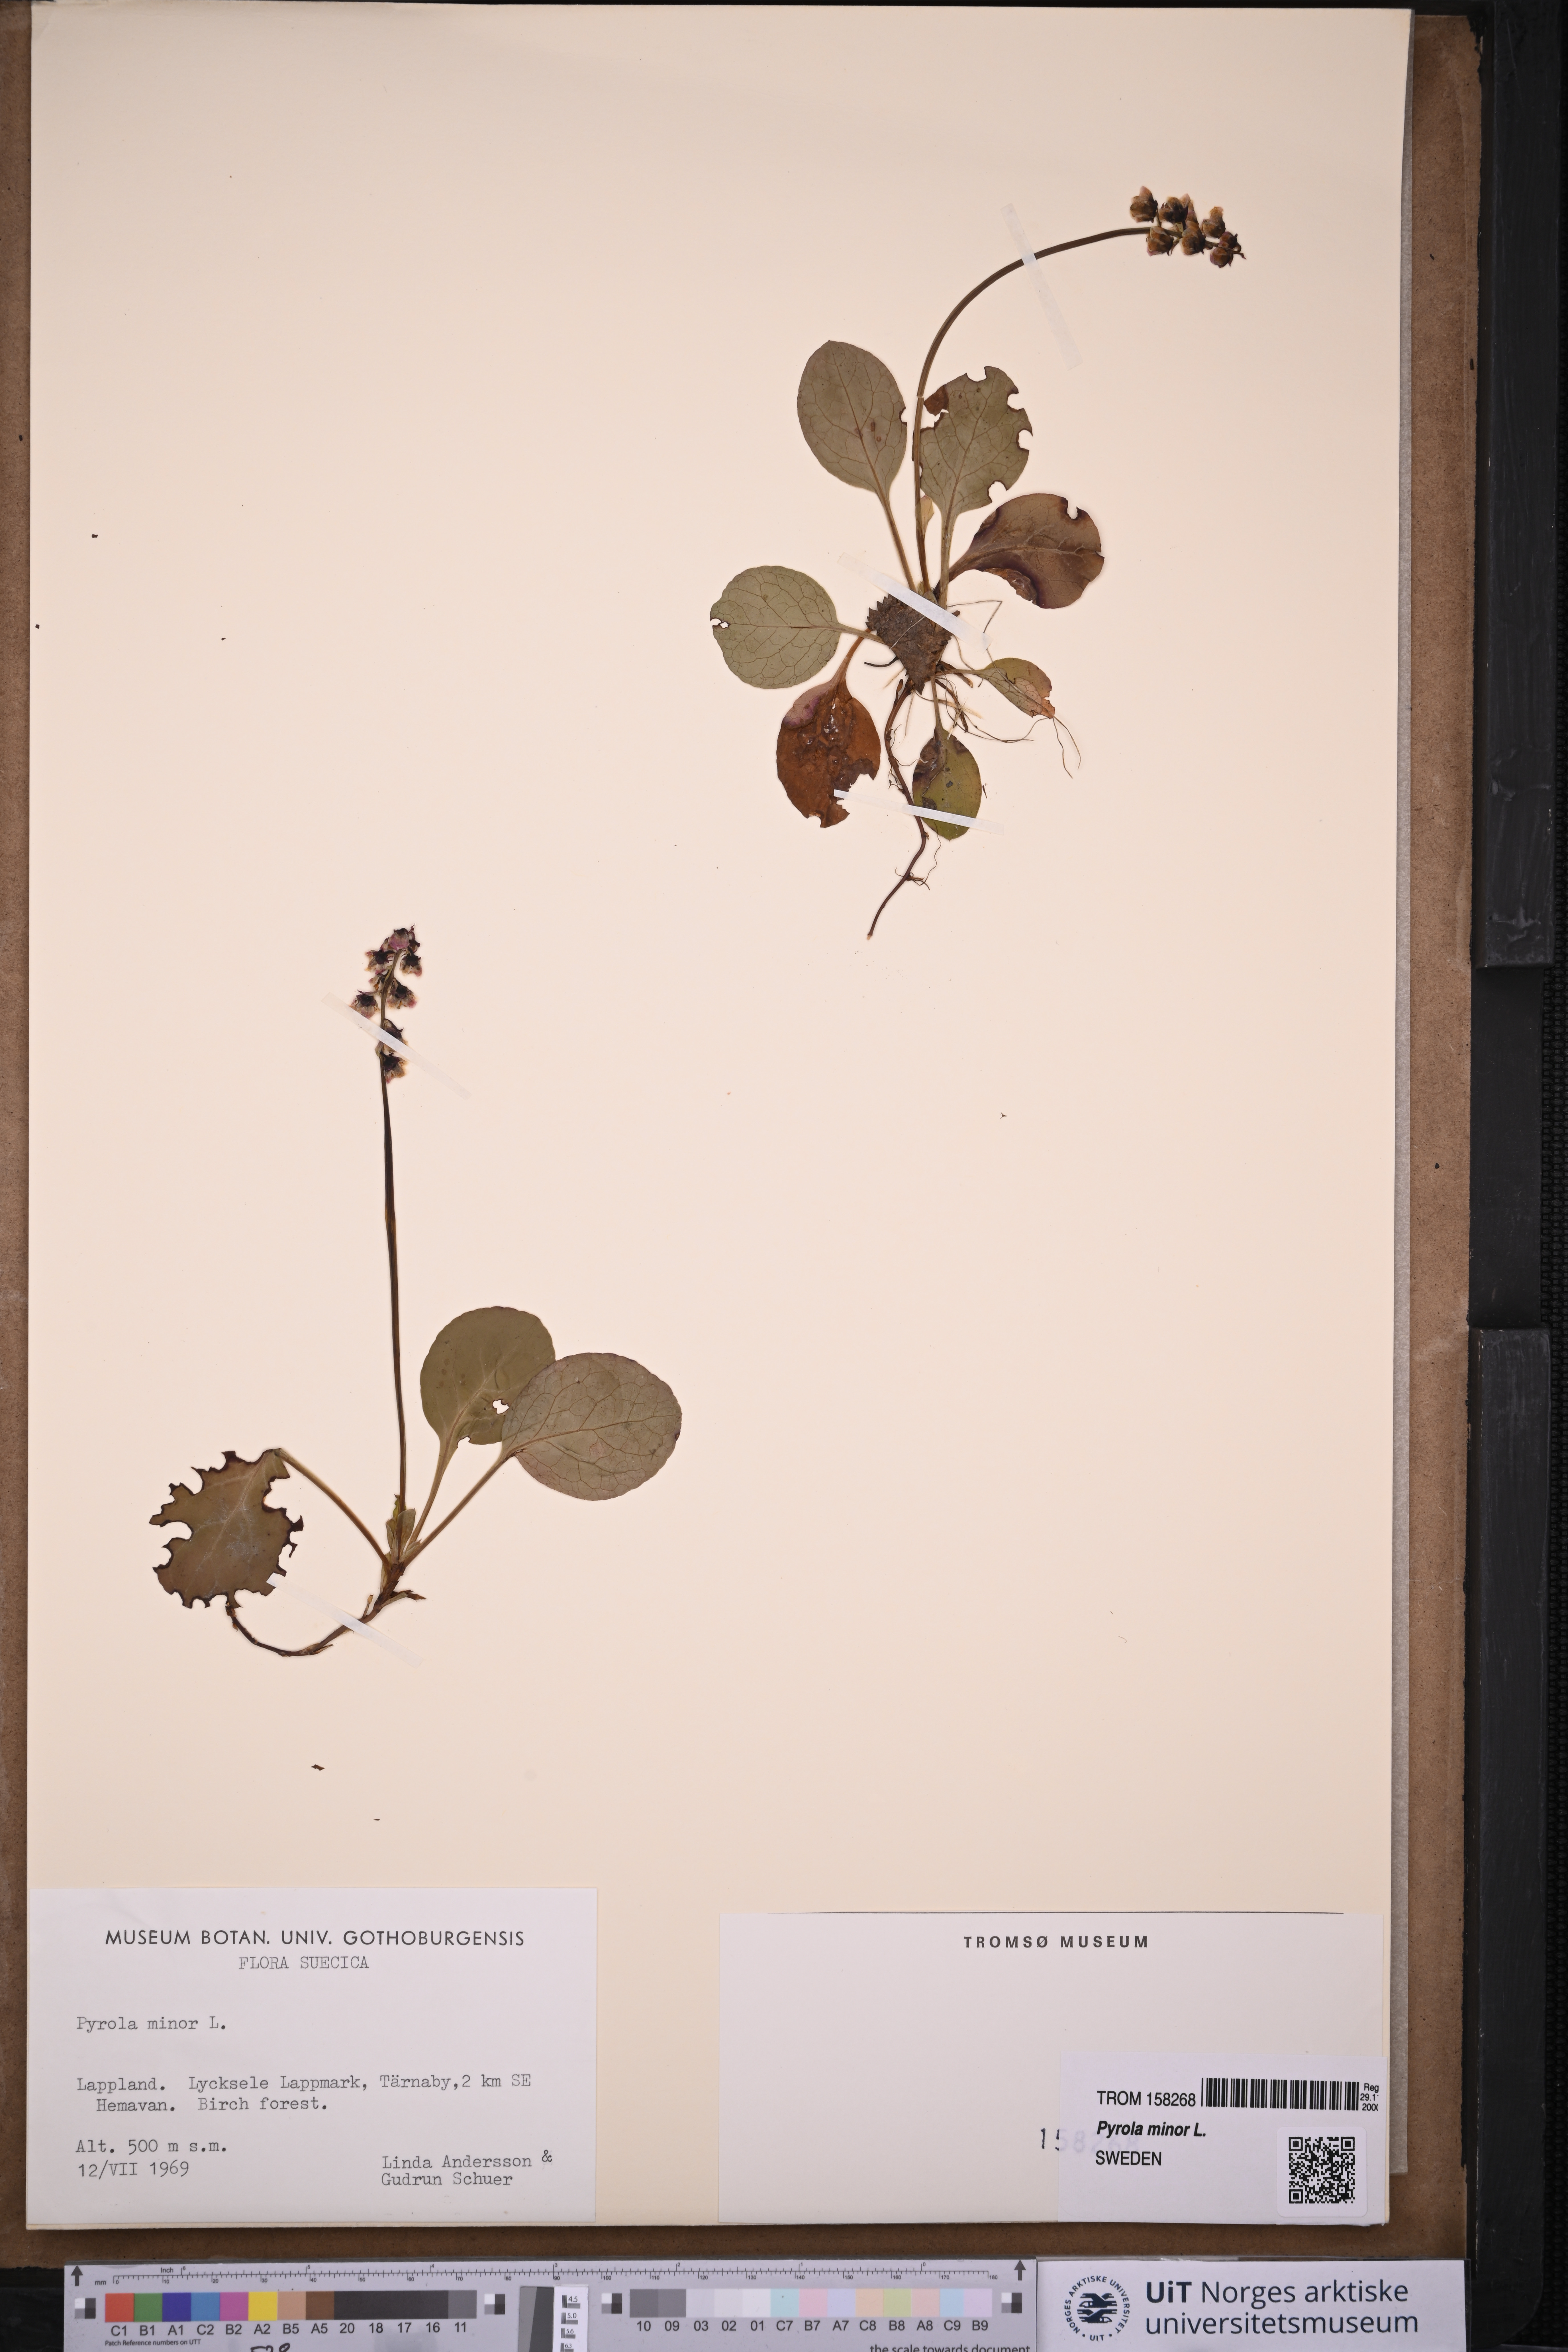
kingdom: Plantae
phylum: Tracheophyta
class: Magnoliopsida
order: Ericales
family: Ericaceae
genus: Pyrola
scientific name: Pyrola minor
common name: Common wintergreen
